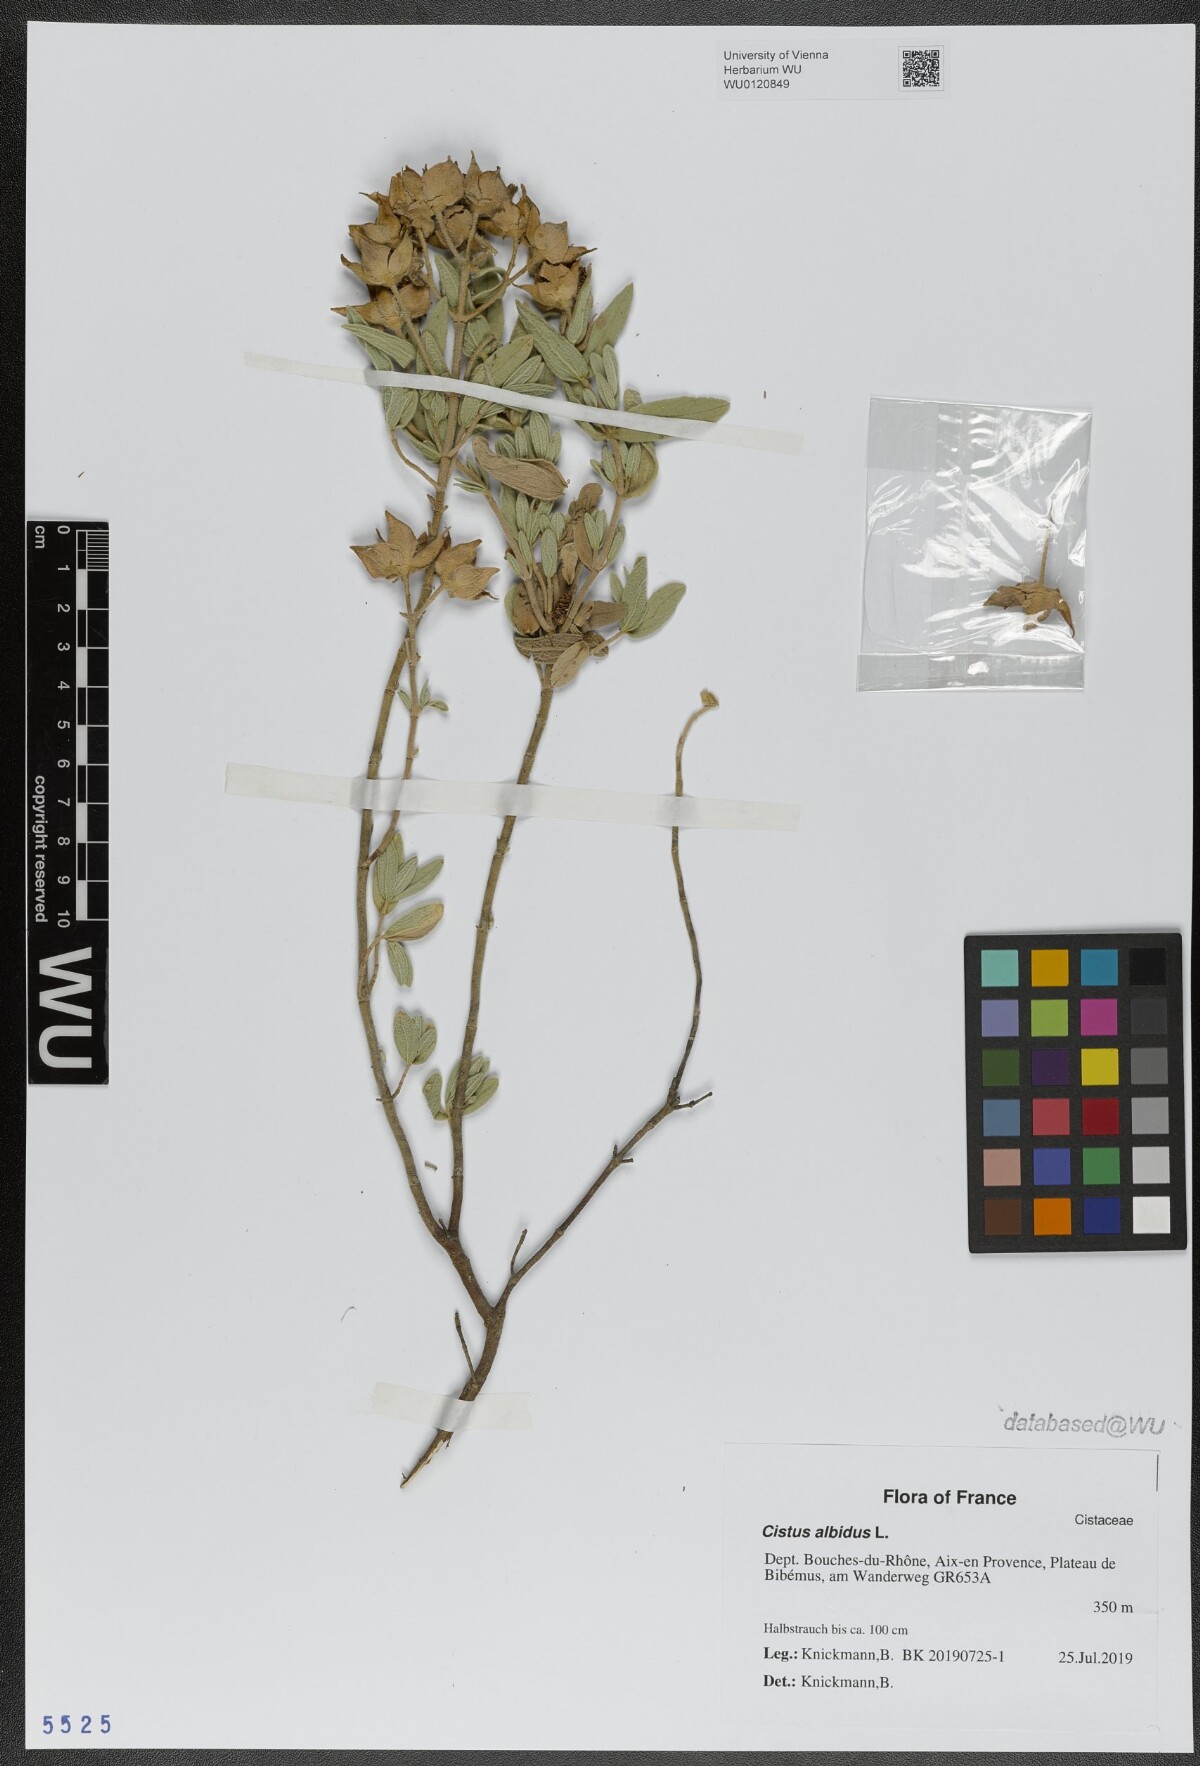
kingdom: Plantae
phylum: Tracheophyta
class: Magnoliopsida
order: Malvales
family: Cistaceae
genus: Cistus
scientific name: Cistus albidus
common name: White-leaf rock-rose
